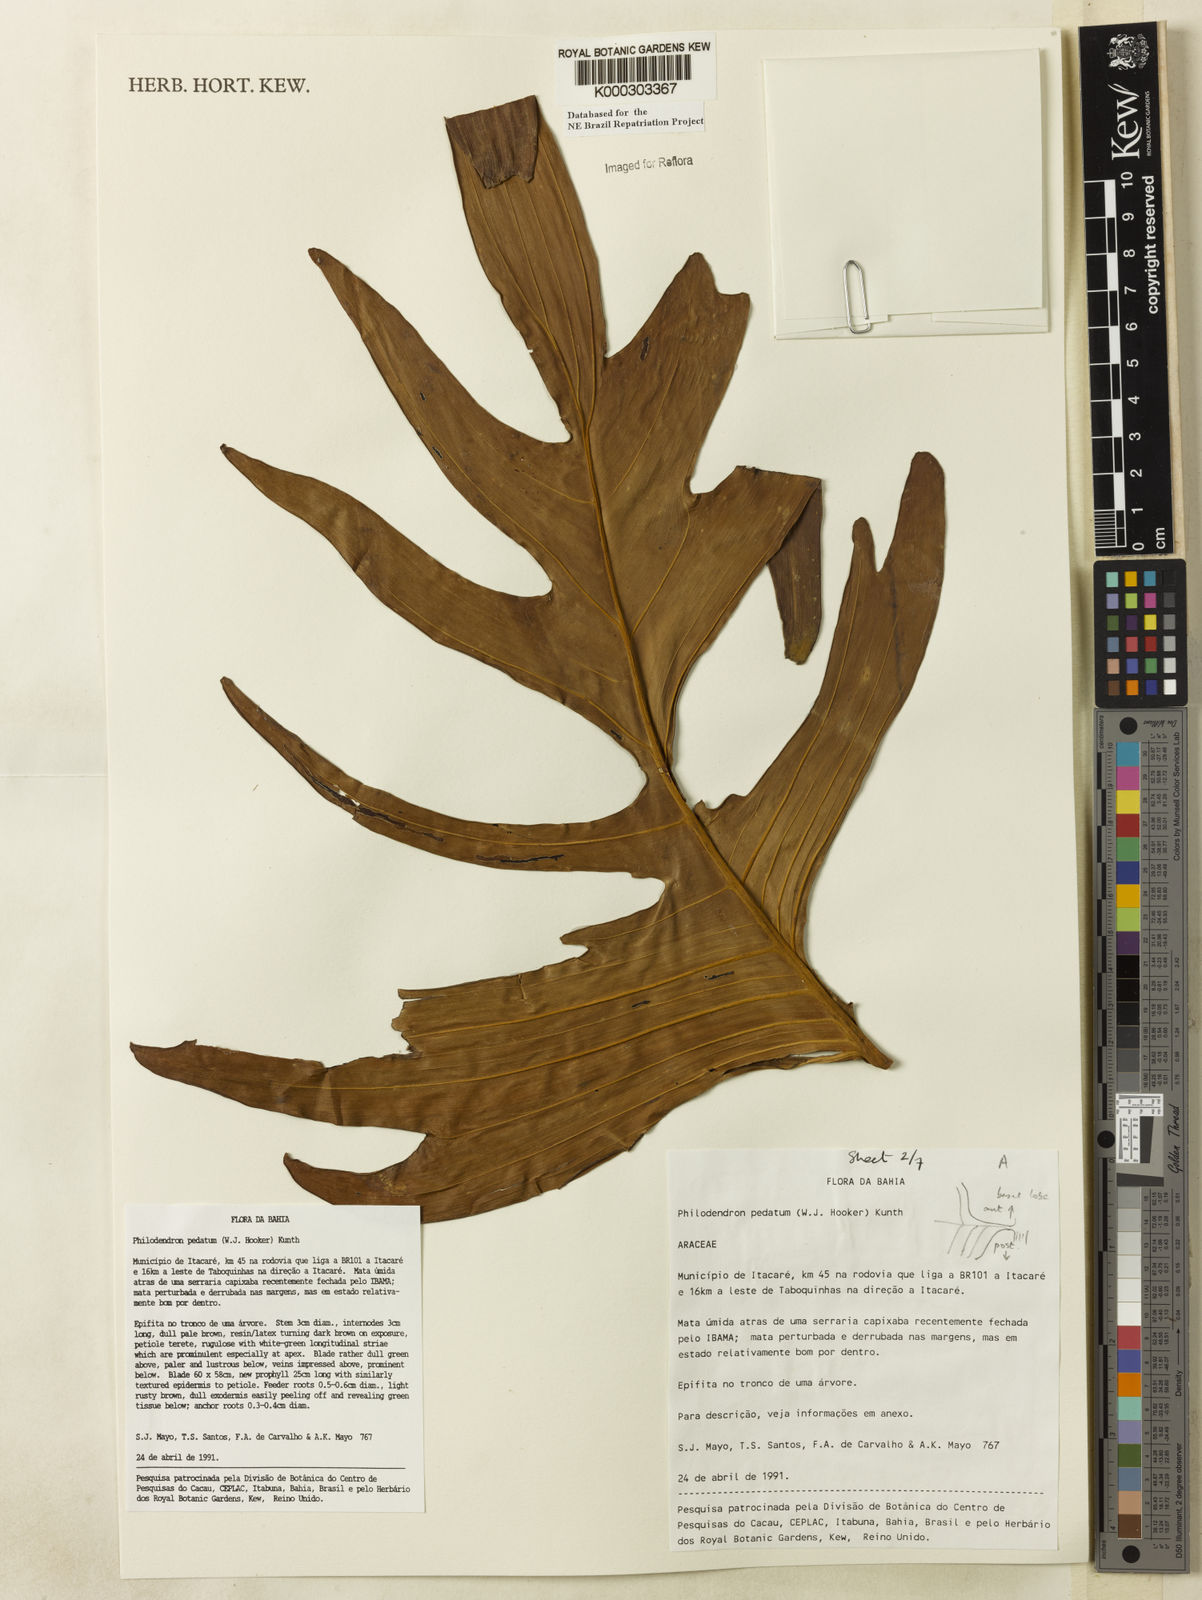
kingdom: Plantae
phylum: Tracheophyta
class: Liliopsida
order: Alismatales
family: Araceae
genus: Philodendron
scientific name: Philodendron pedatum
